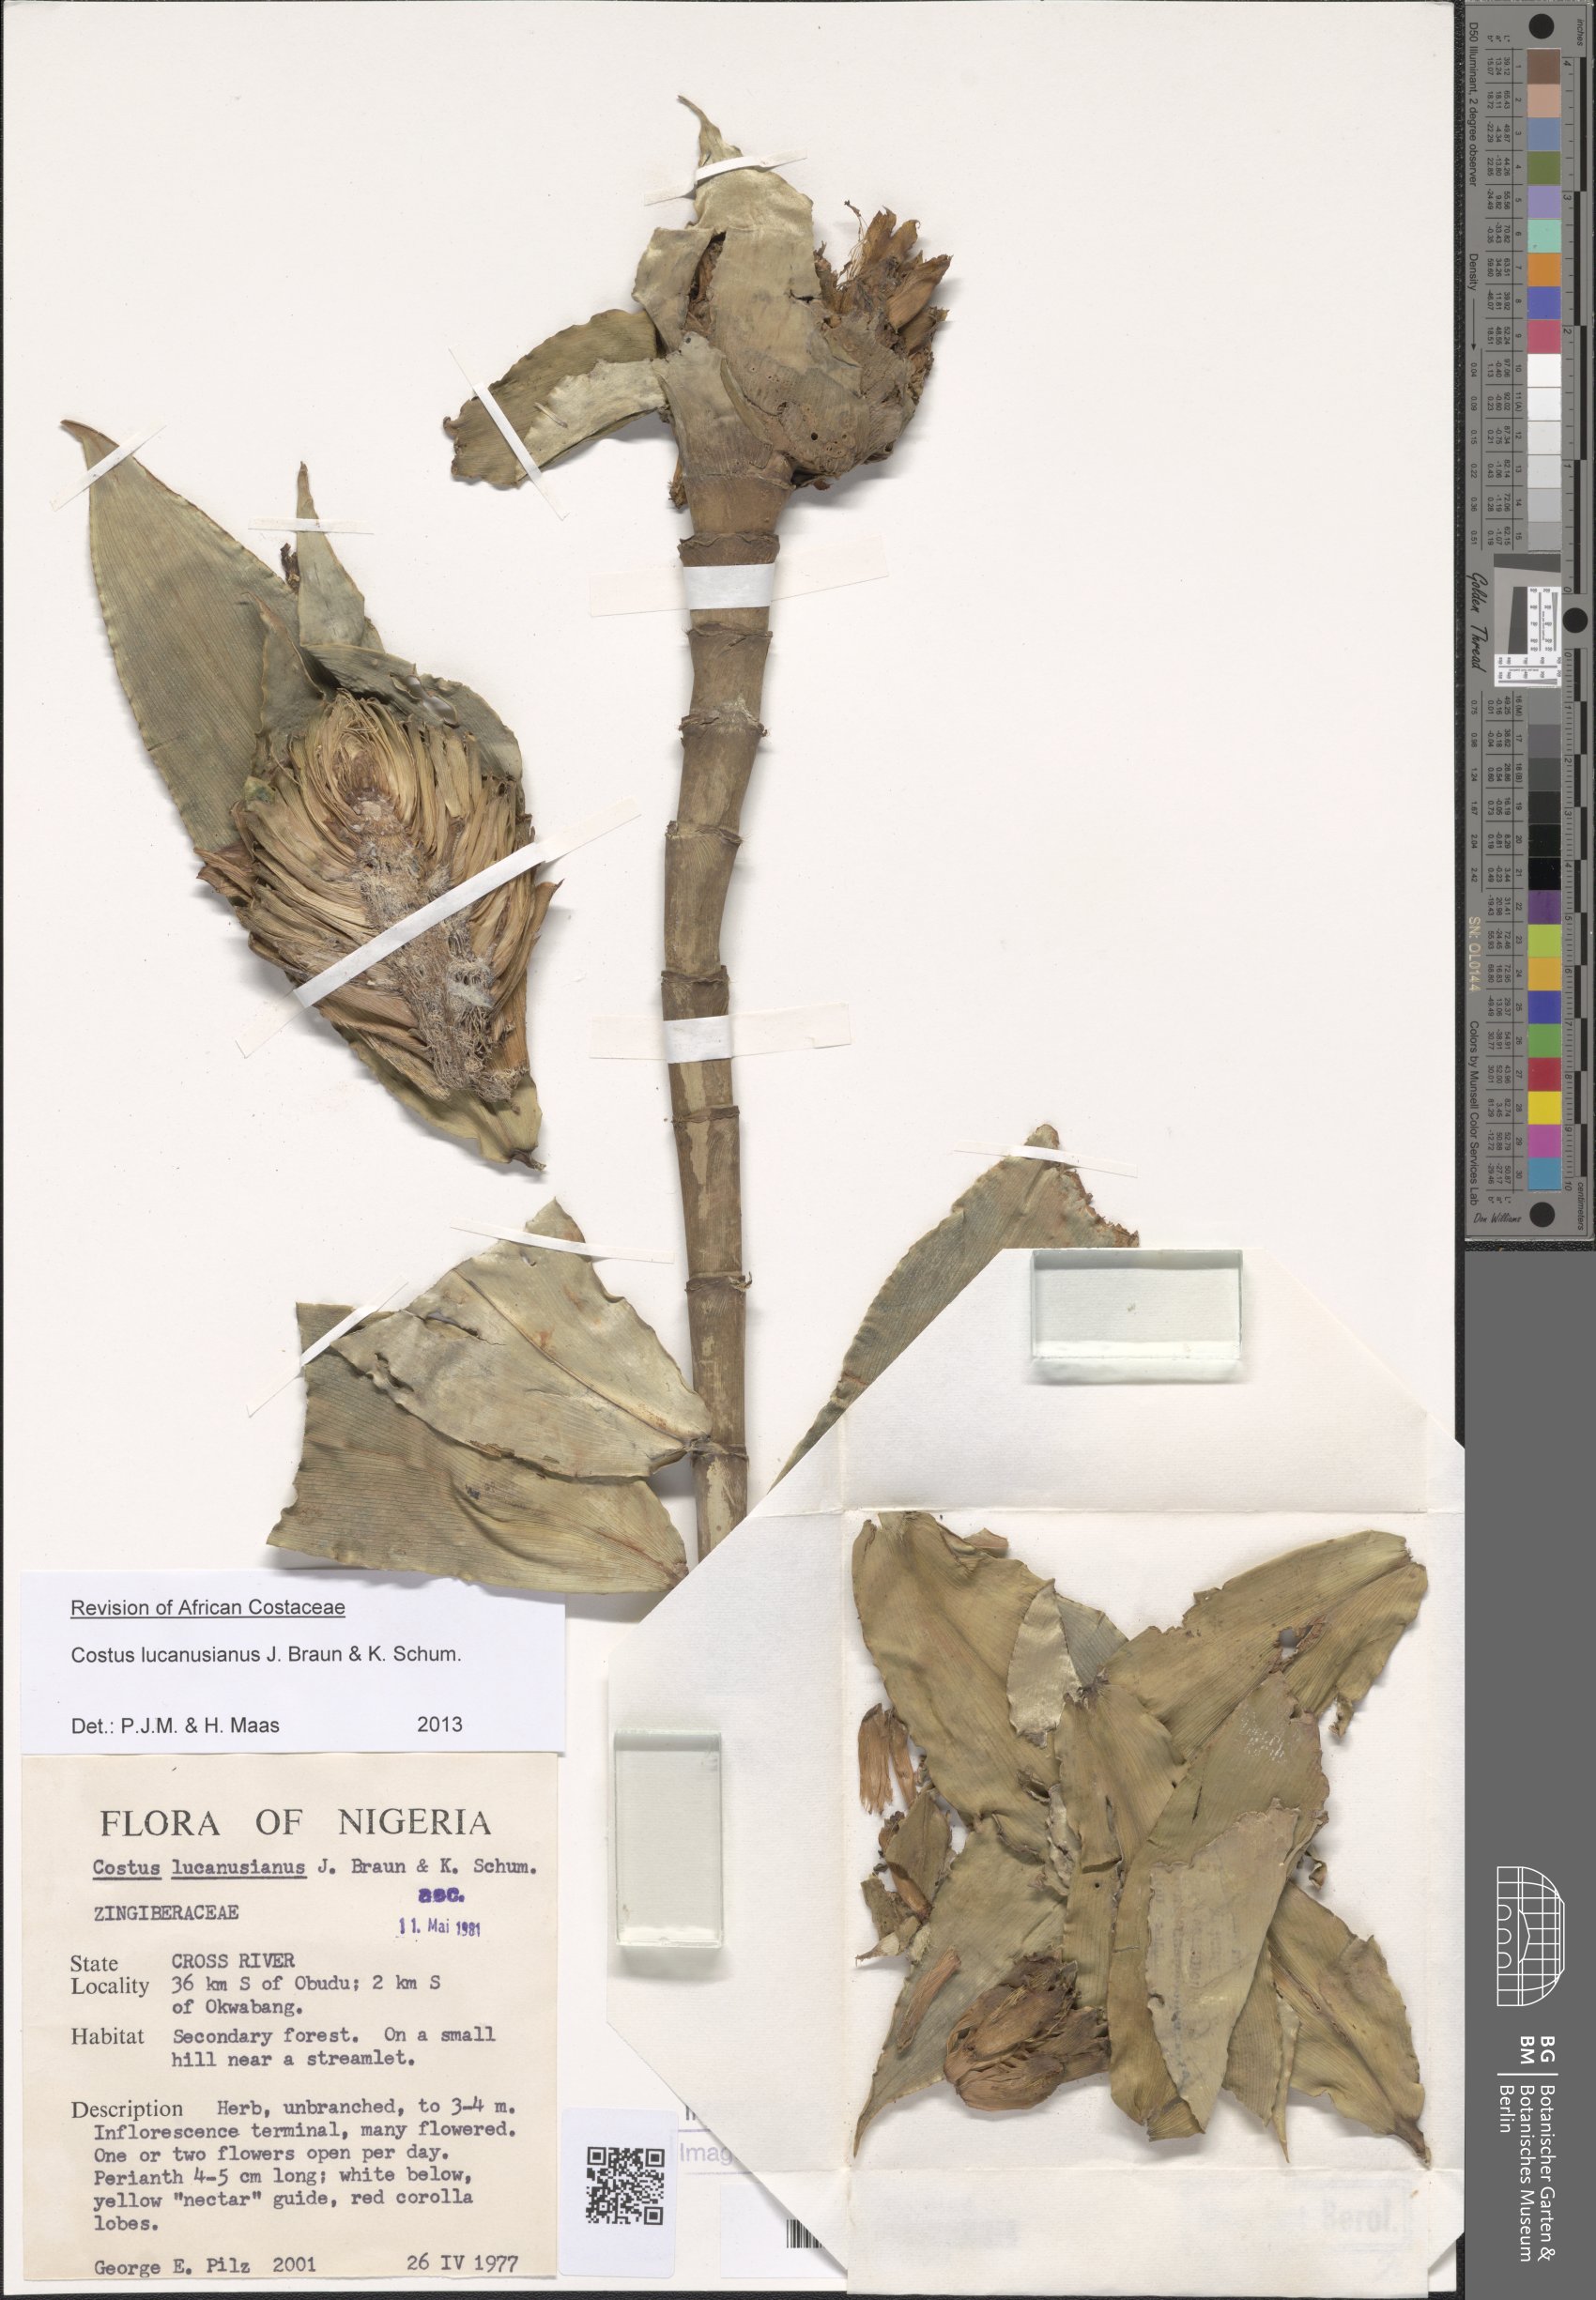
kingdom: Plantae
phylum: Tracheophyta
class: Liliopsida
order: Zingiberales
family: Costaceae
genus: Costus
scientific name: Costus lucanusianus
